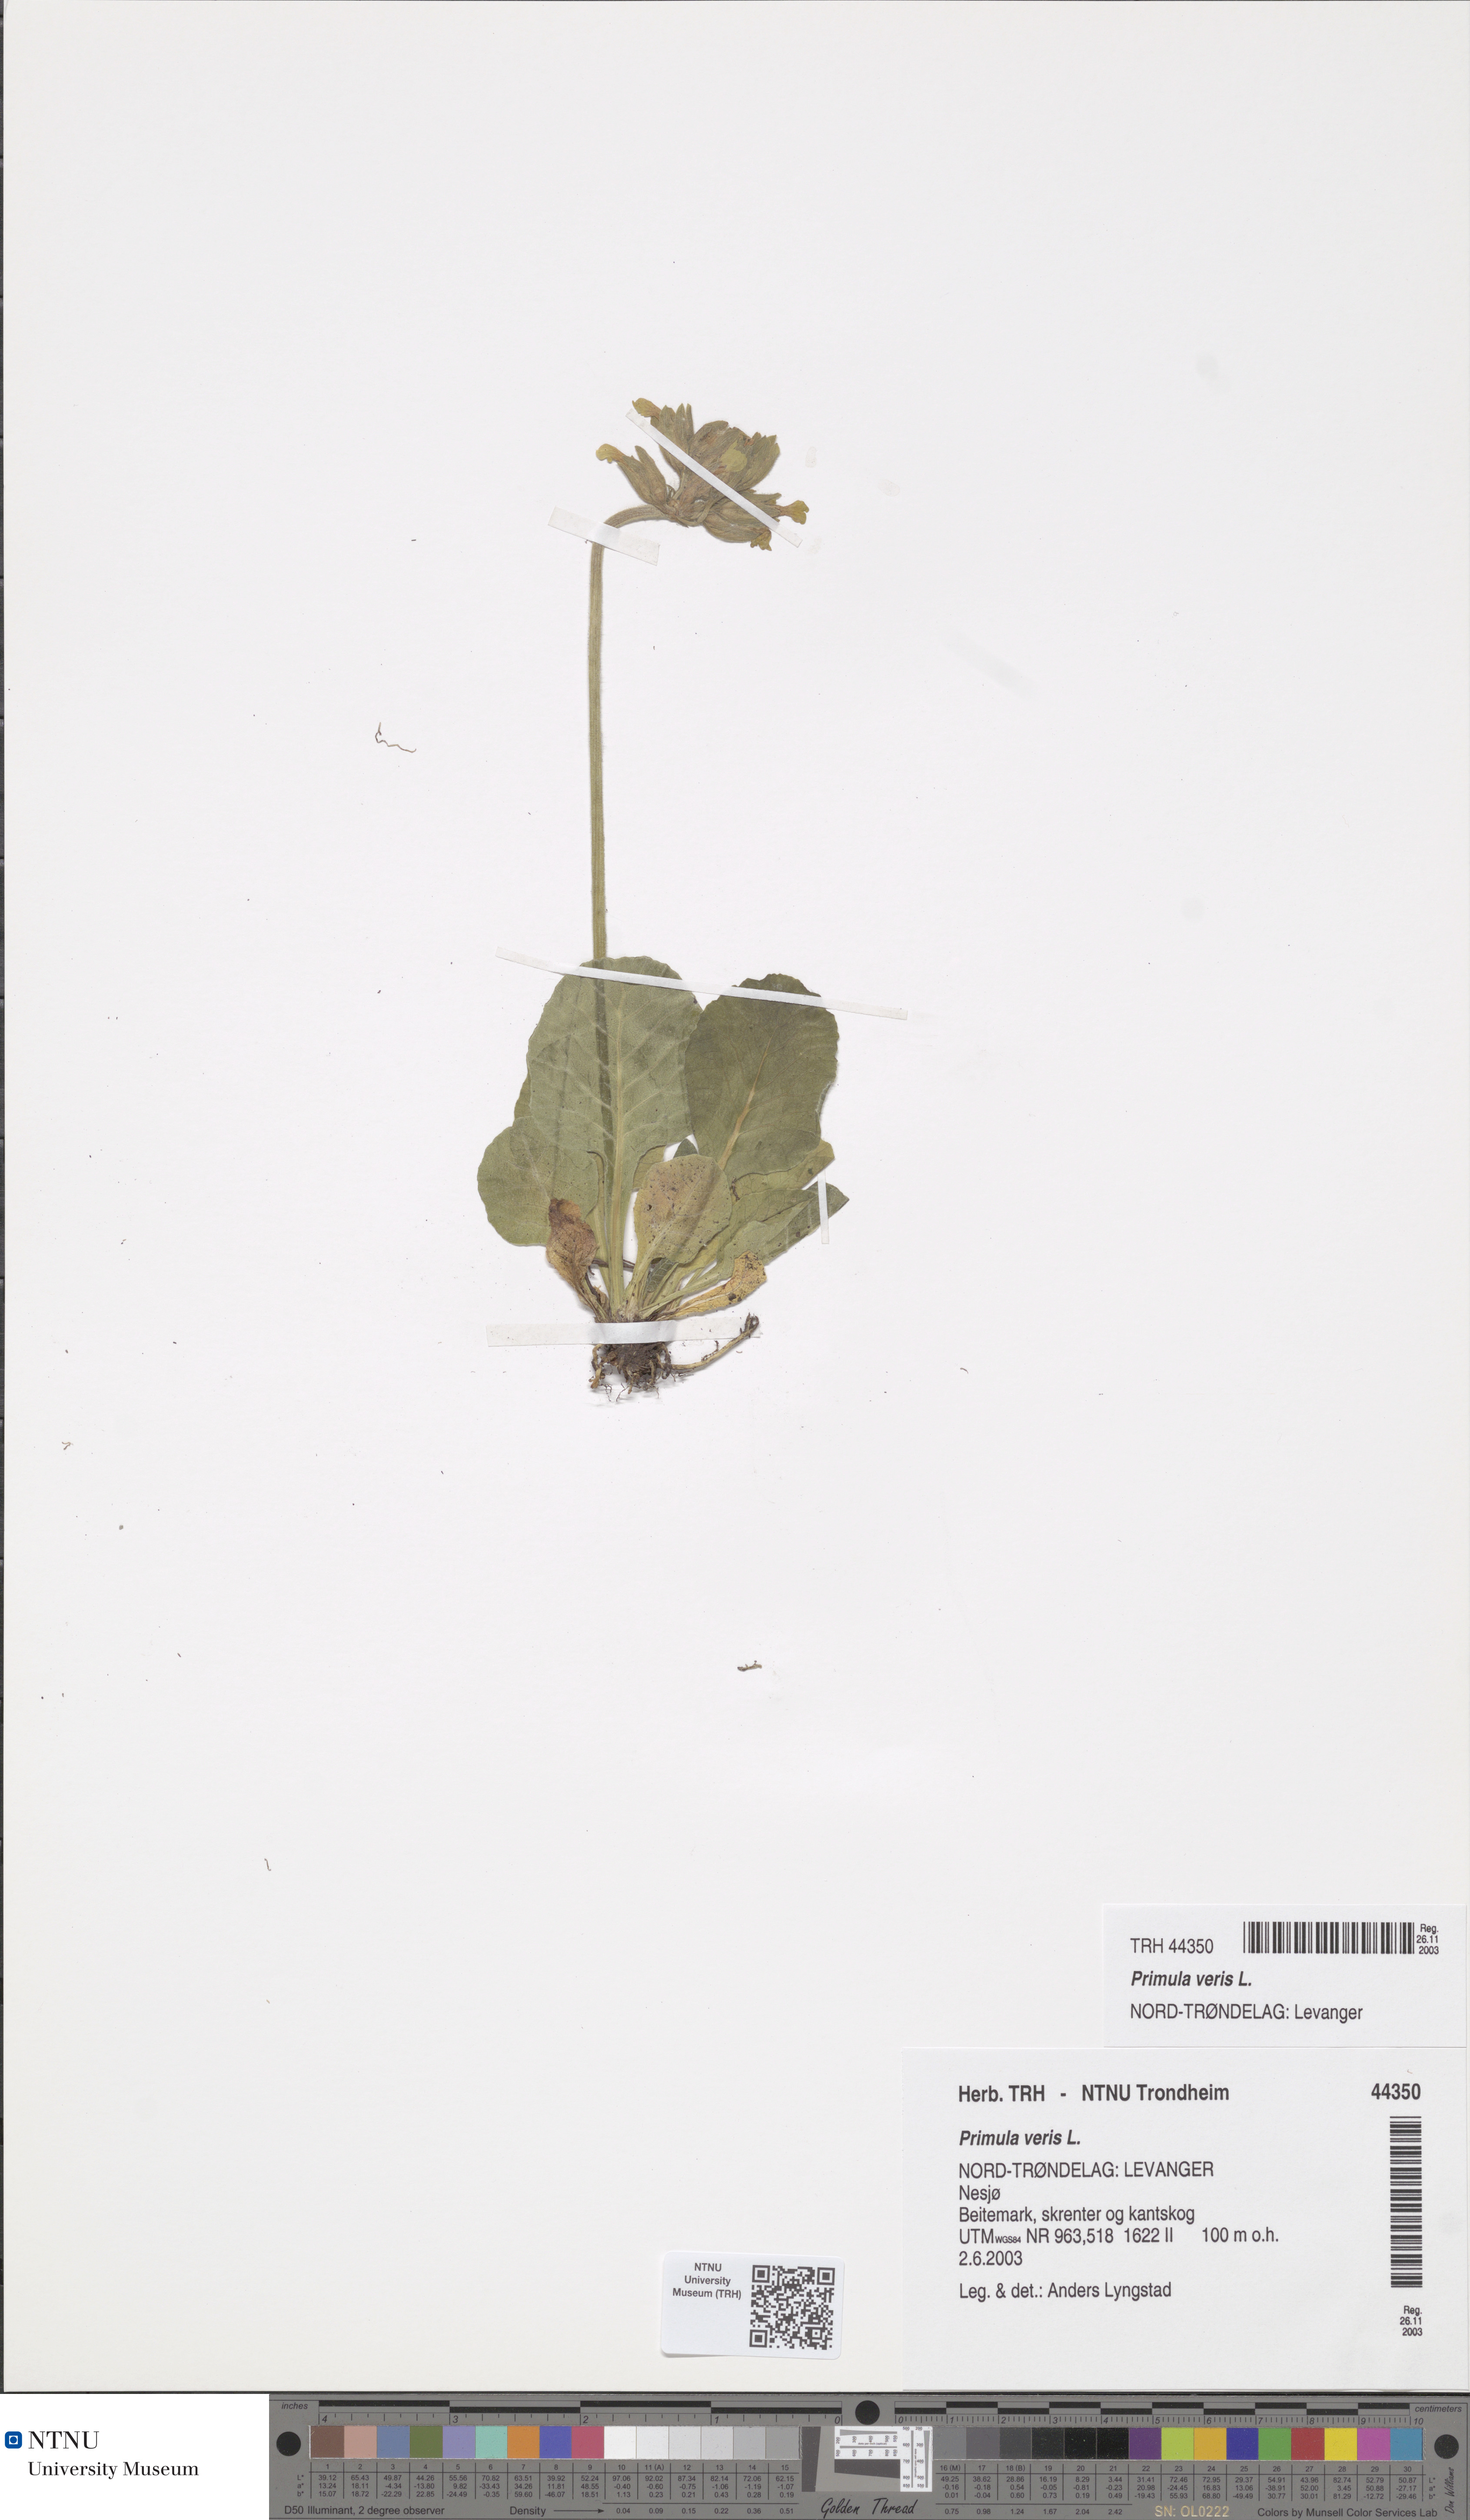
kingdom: Plantae
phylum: Tracheophyta
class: Magnoliopsida
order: Ericales
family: Primulaceae
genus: Primula
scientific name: Primula veris
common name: Cowslip
